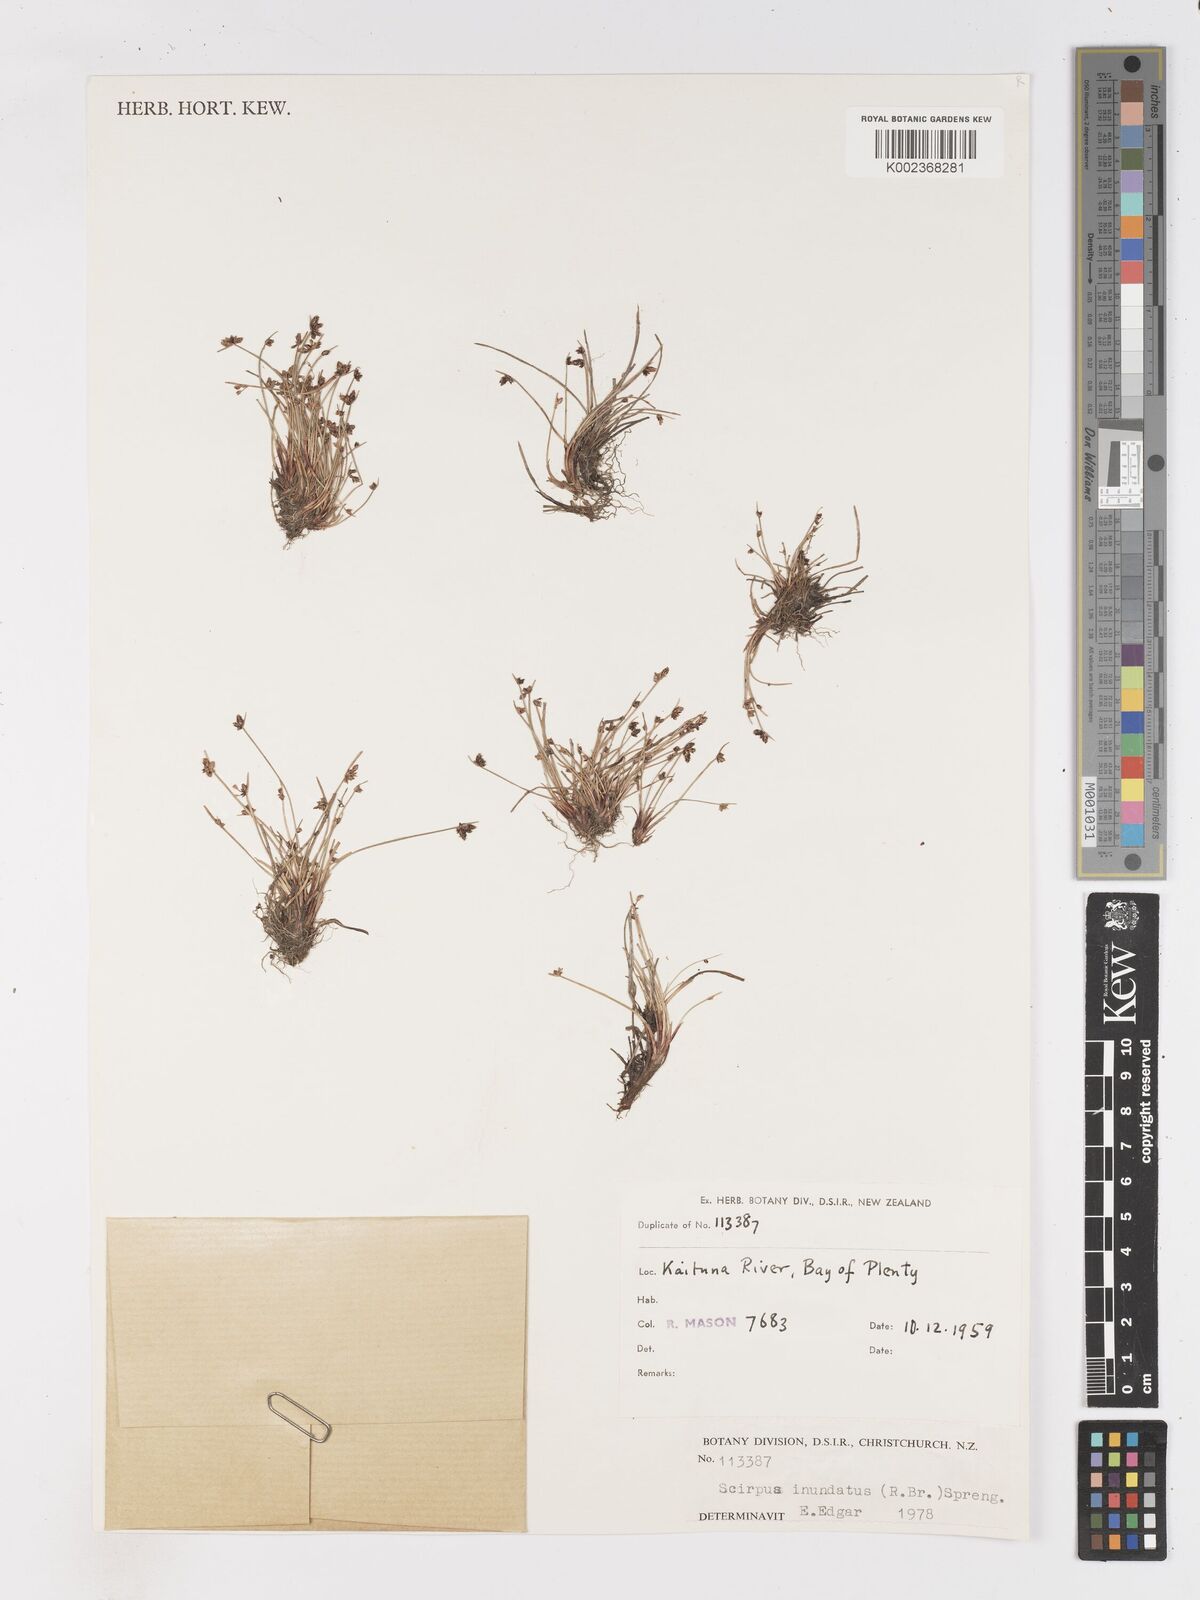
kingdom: Plantae
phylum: Tracheophyta
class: Liliopsida
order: Poales
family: Cyperaceae
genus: Isolepis
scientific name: Isolepis inundata
